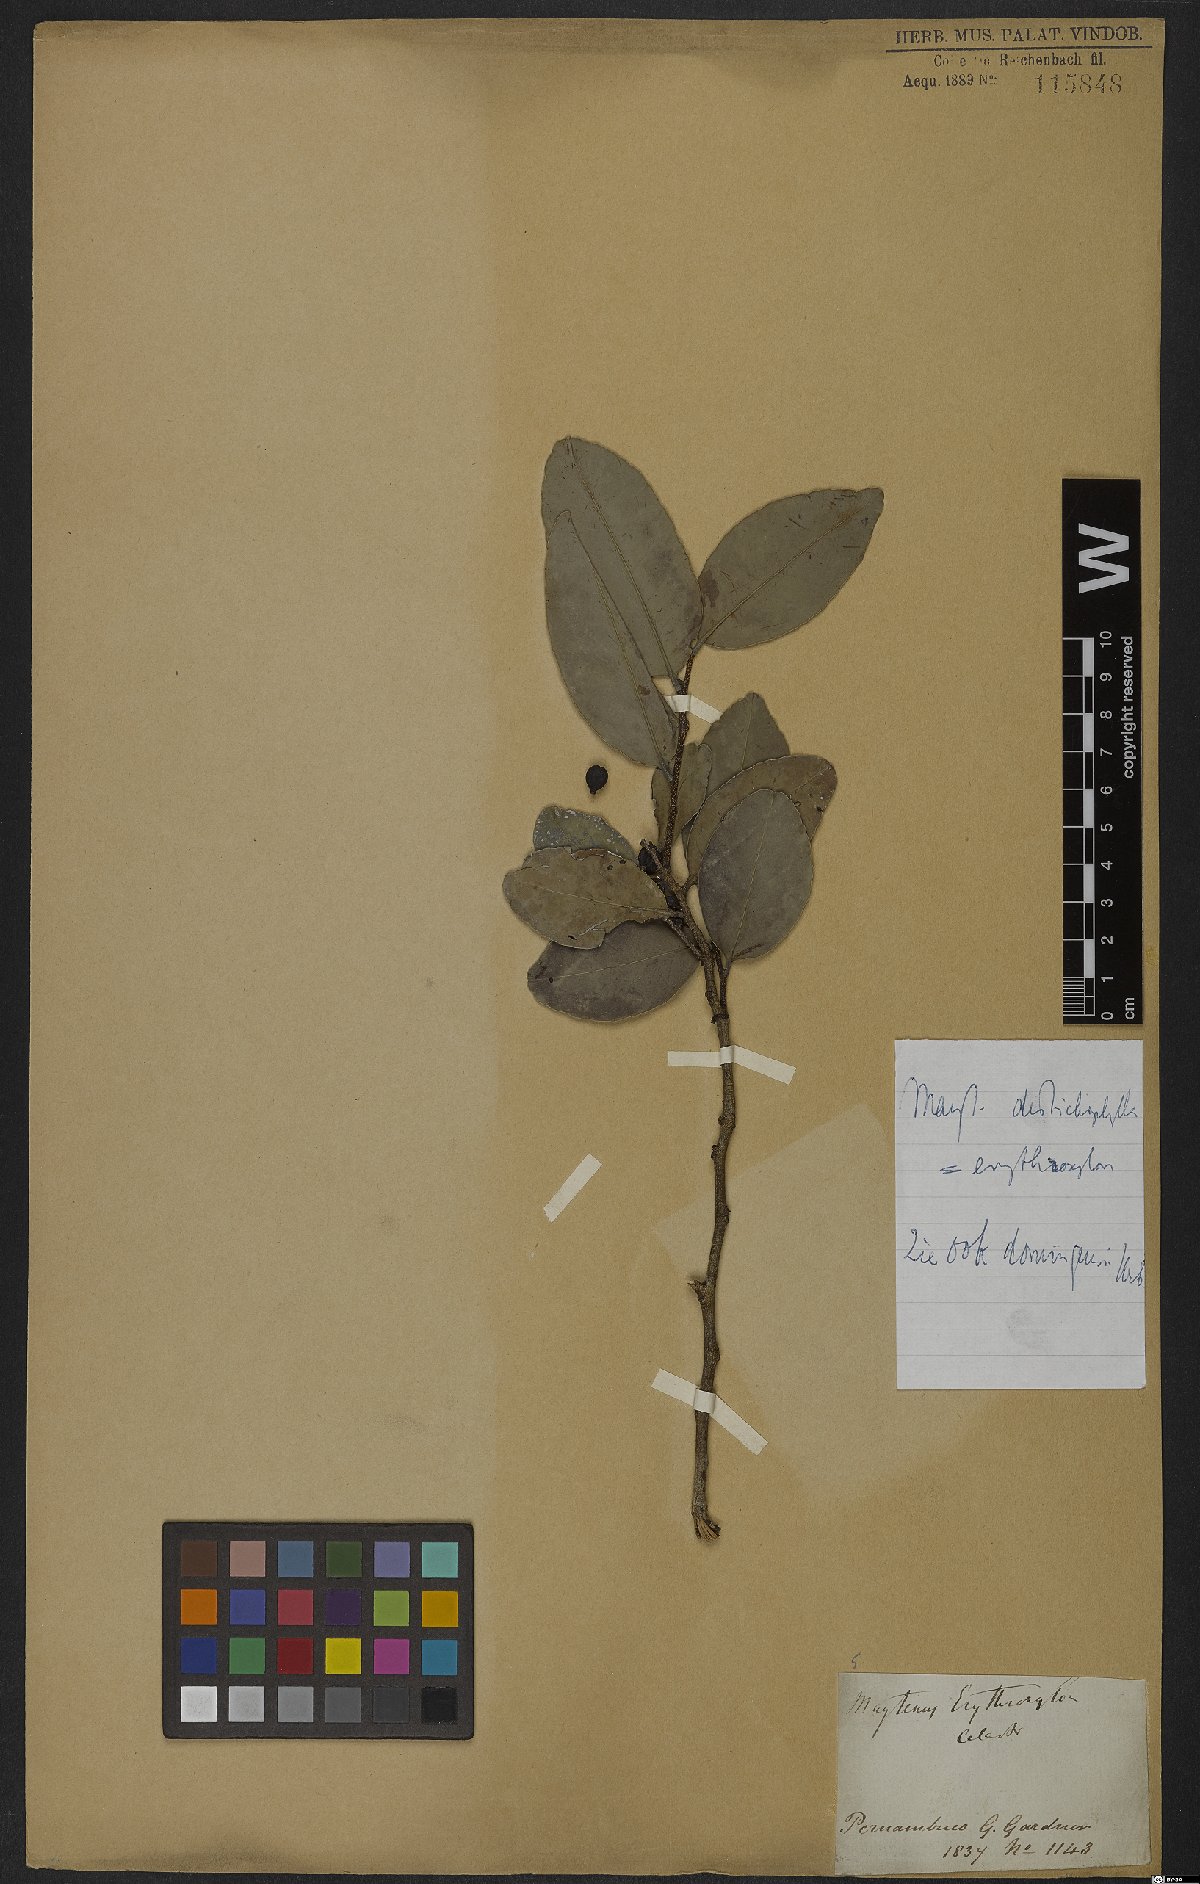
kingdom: Plantae
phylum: Tracheophyta
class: Magnoliopsida
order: Celastrales
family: Celastraceae
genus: Maytenus
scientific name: Maytenus distichophylla
